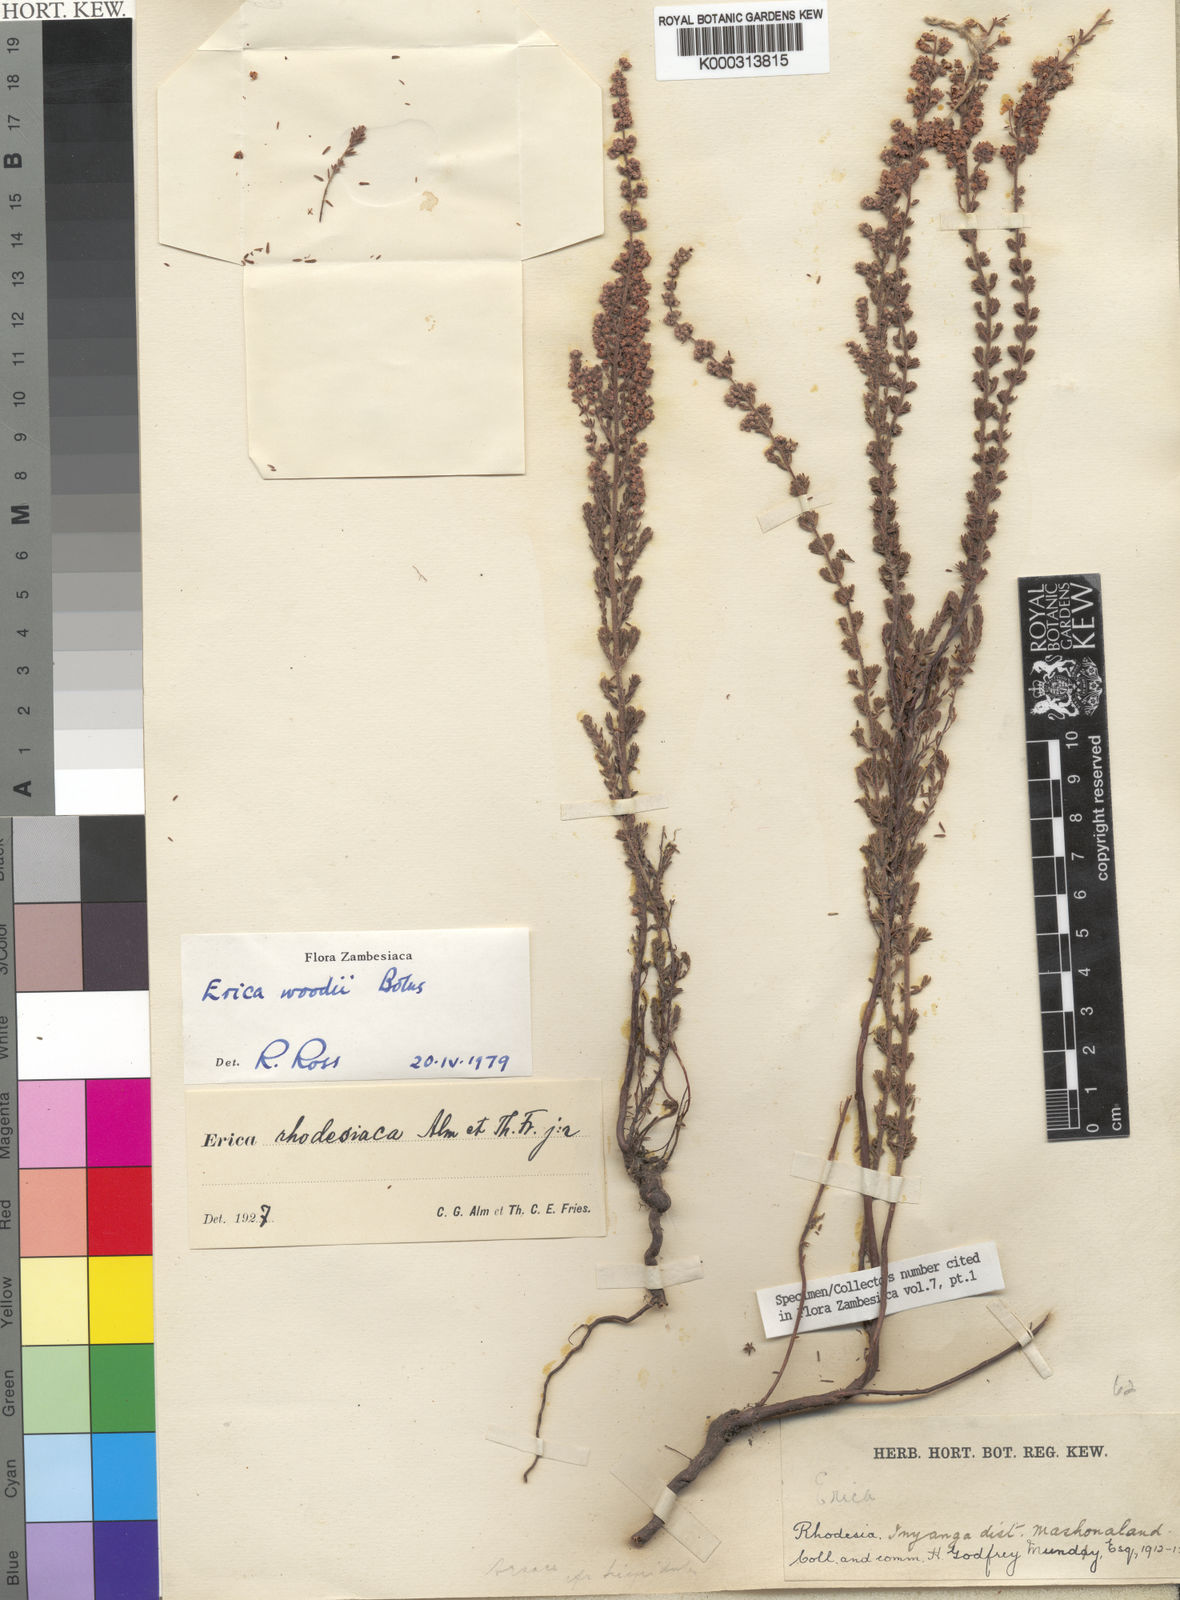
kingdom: Plantae
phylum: Tracheophyta
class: Magnoliopsida
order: Ericales
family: Ericaceae
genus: Erica
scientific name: Erica woodii
